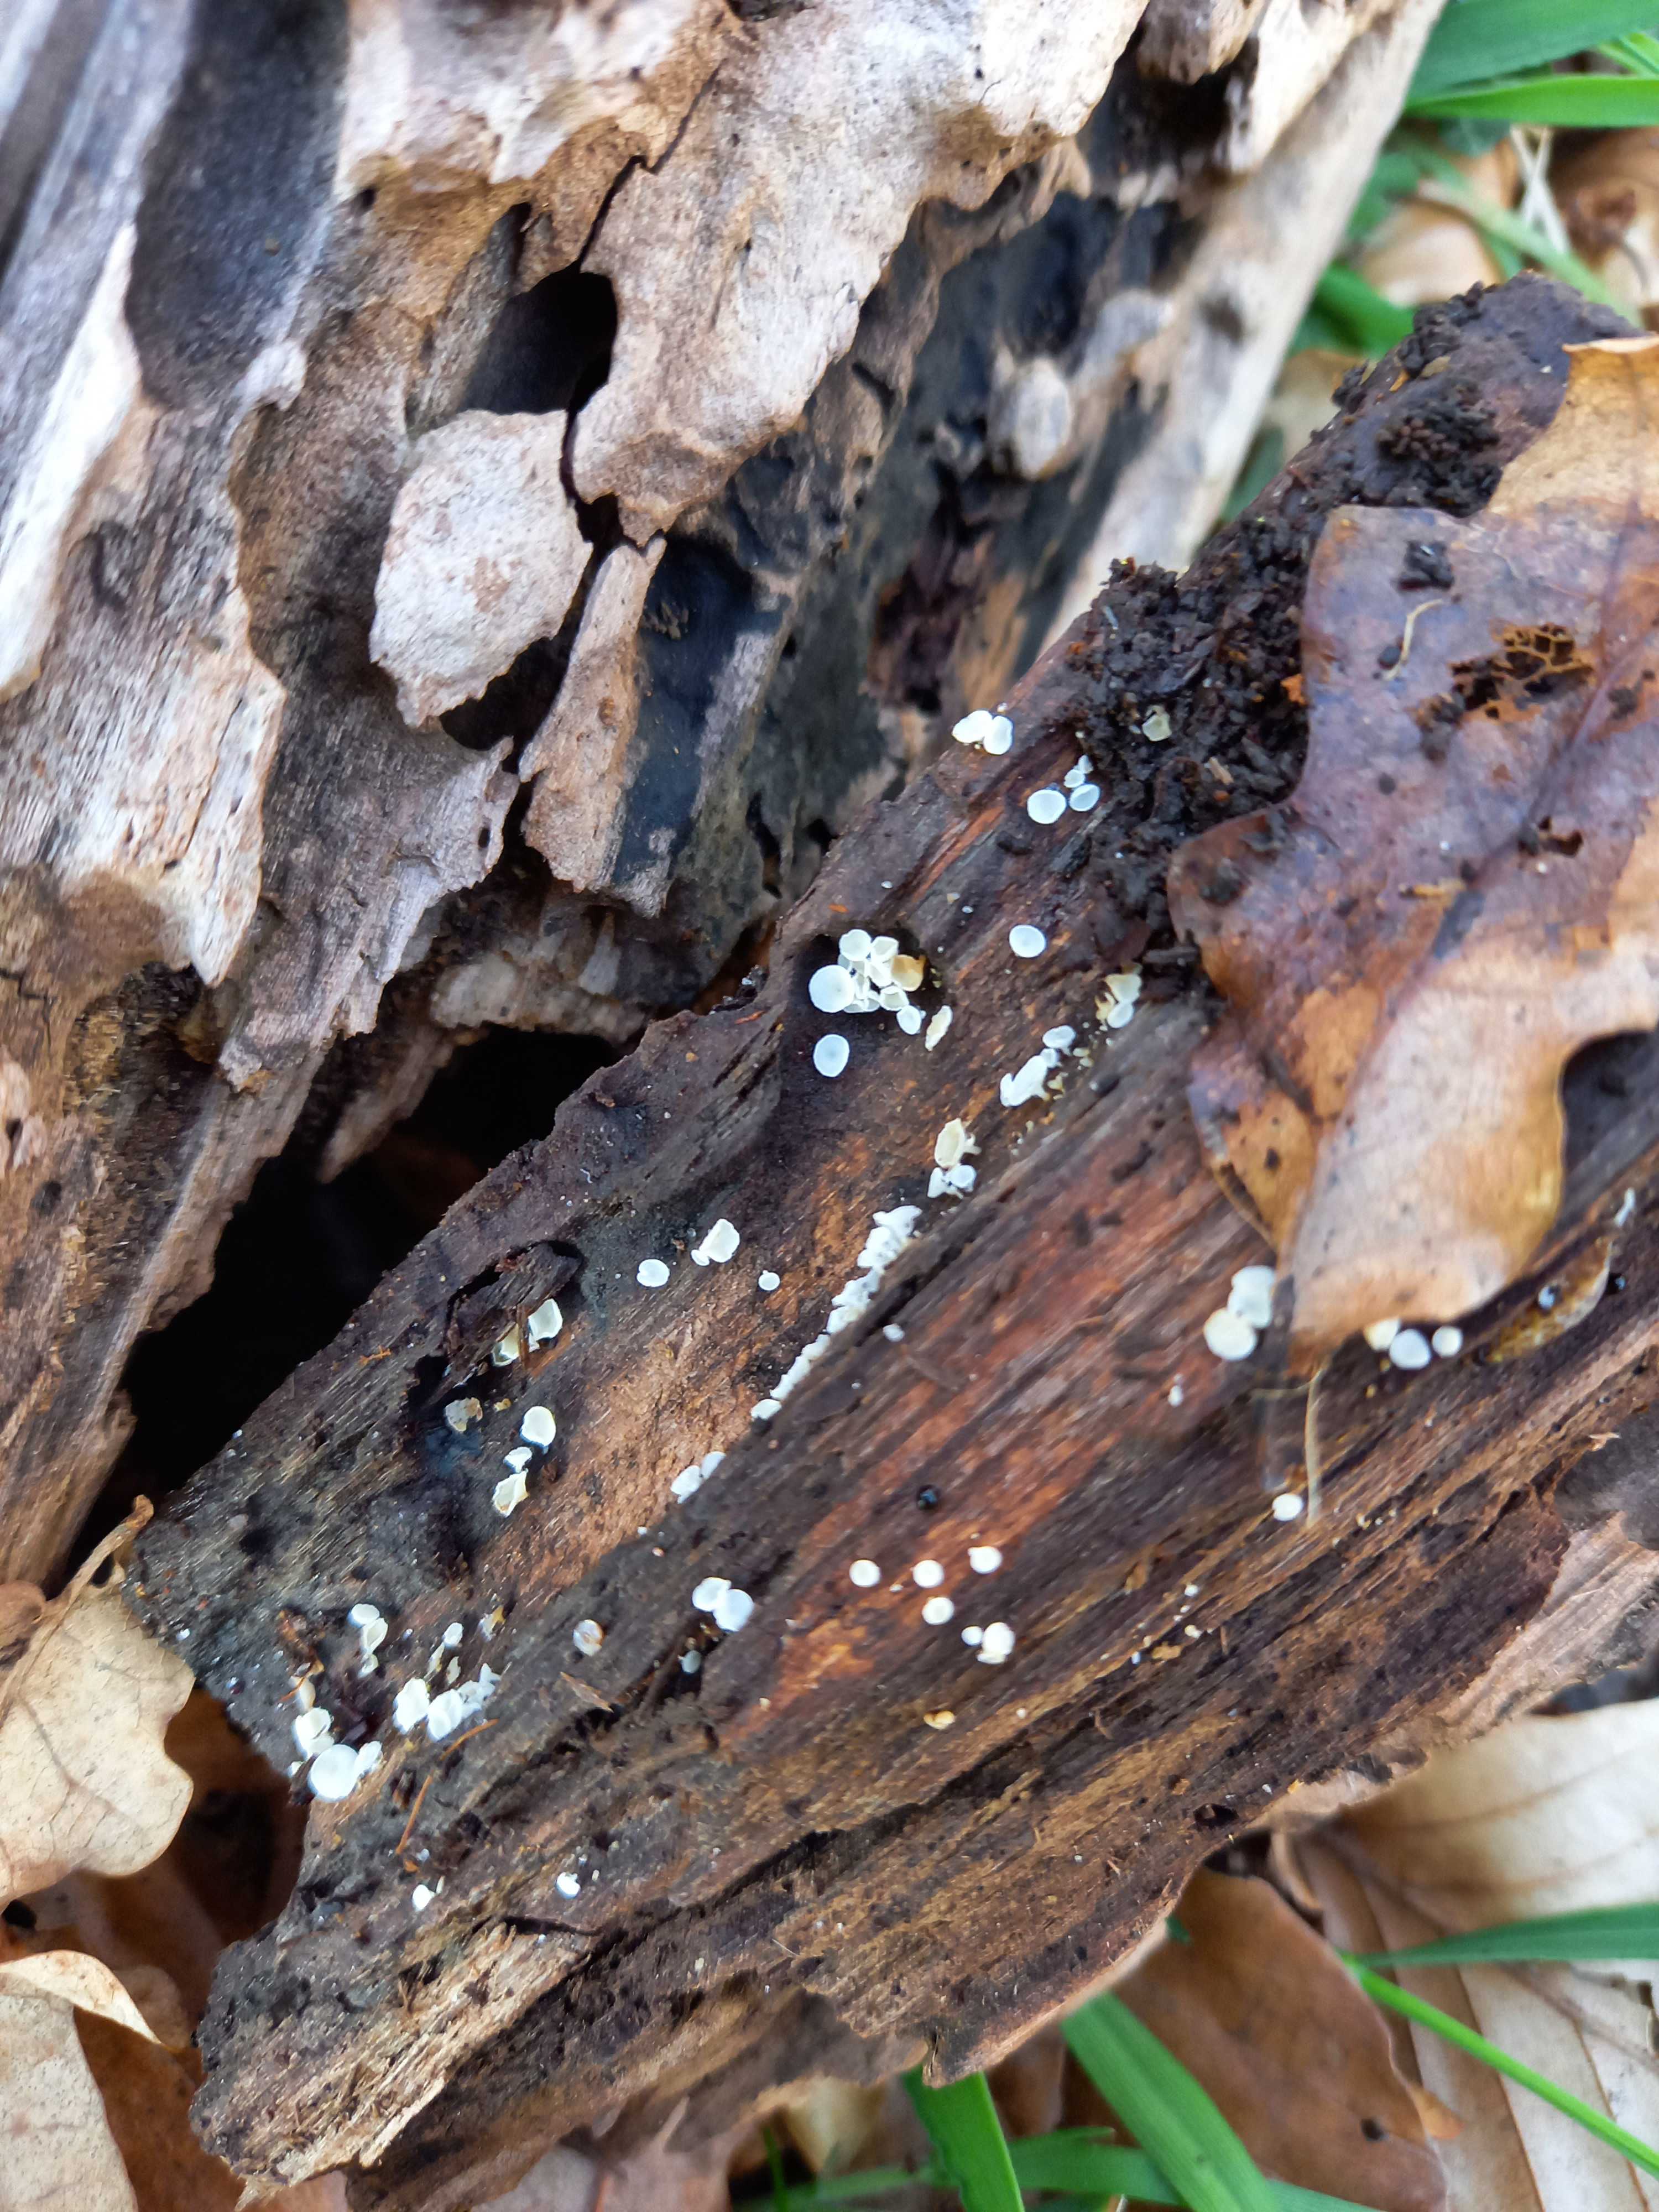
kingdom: Fungi
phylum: Ascomycota
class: Leotiomycetes
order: Helotiales
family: Lachnaceae
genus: Lachnum
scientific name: Lachnum
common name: frynseskive
